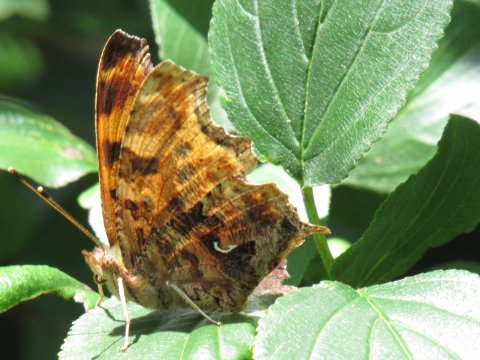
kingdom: Animalia
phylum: Arthropoda
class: Insecta
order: Lepidoptera
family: Nymphalidae
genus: Polygonia
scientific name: Polygonia comma
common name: Eastern Comma
